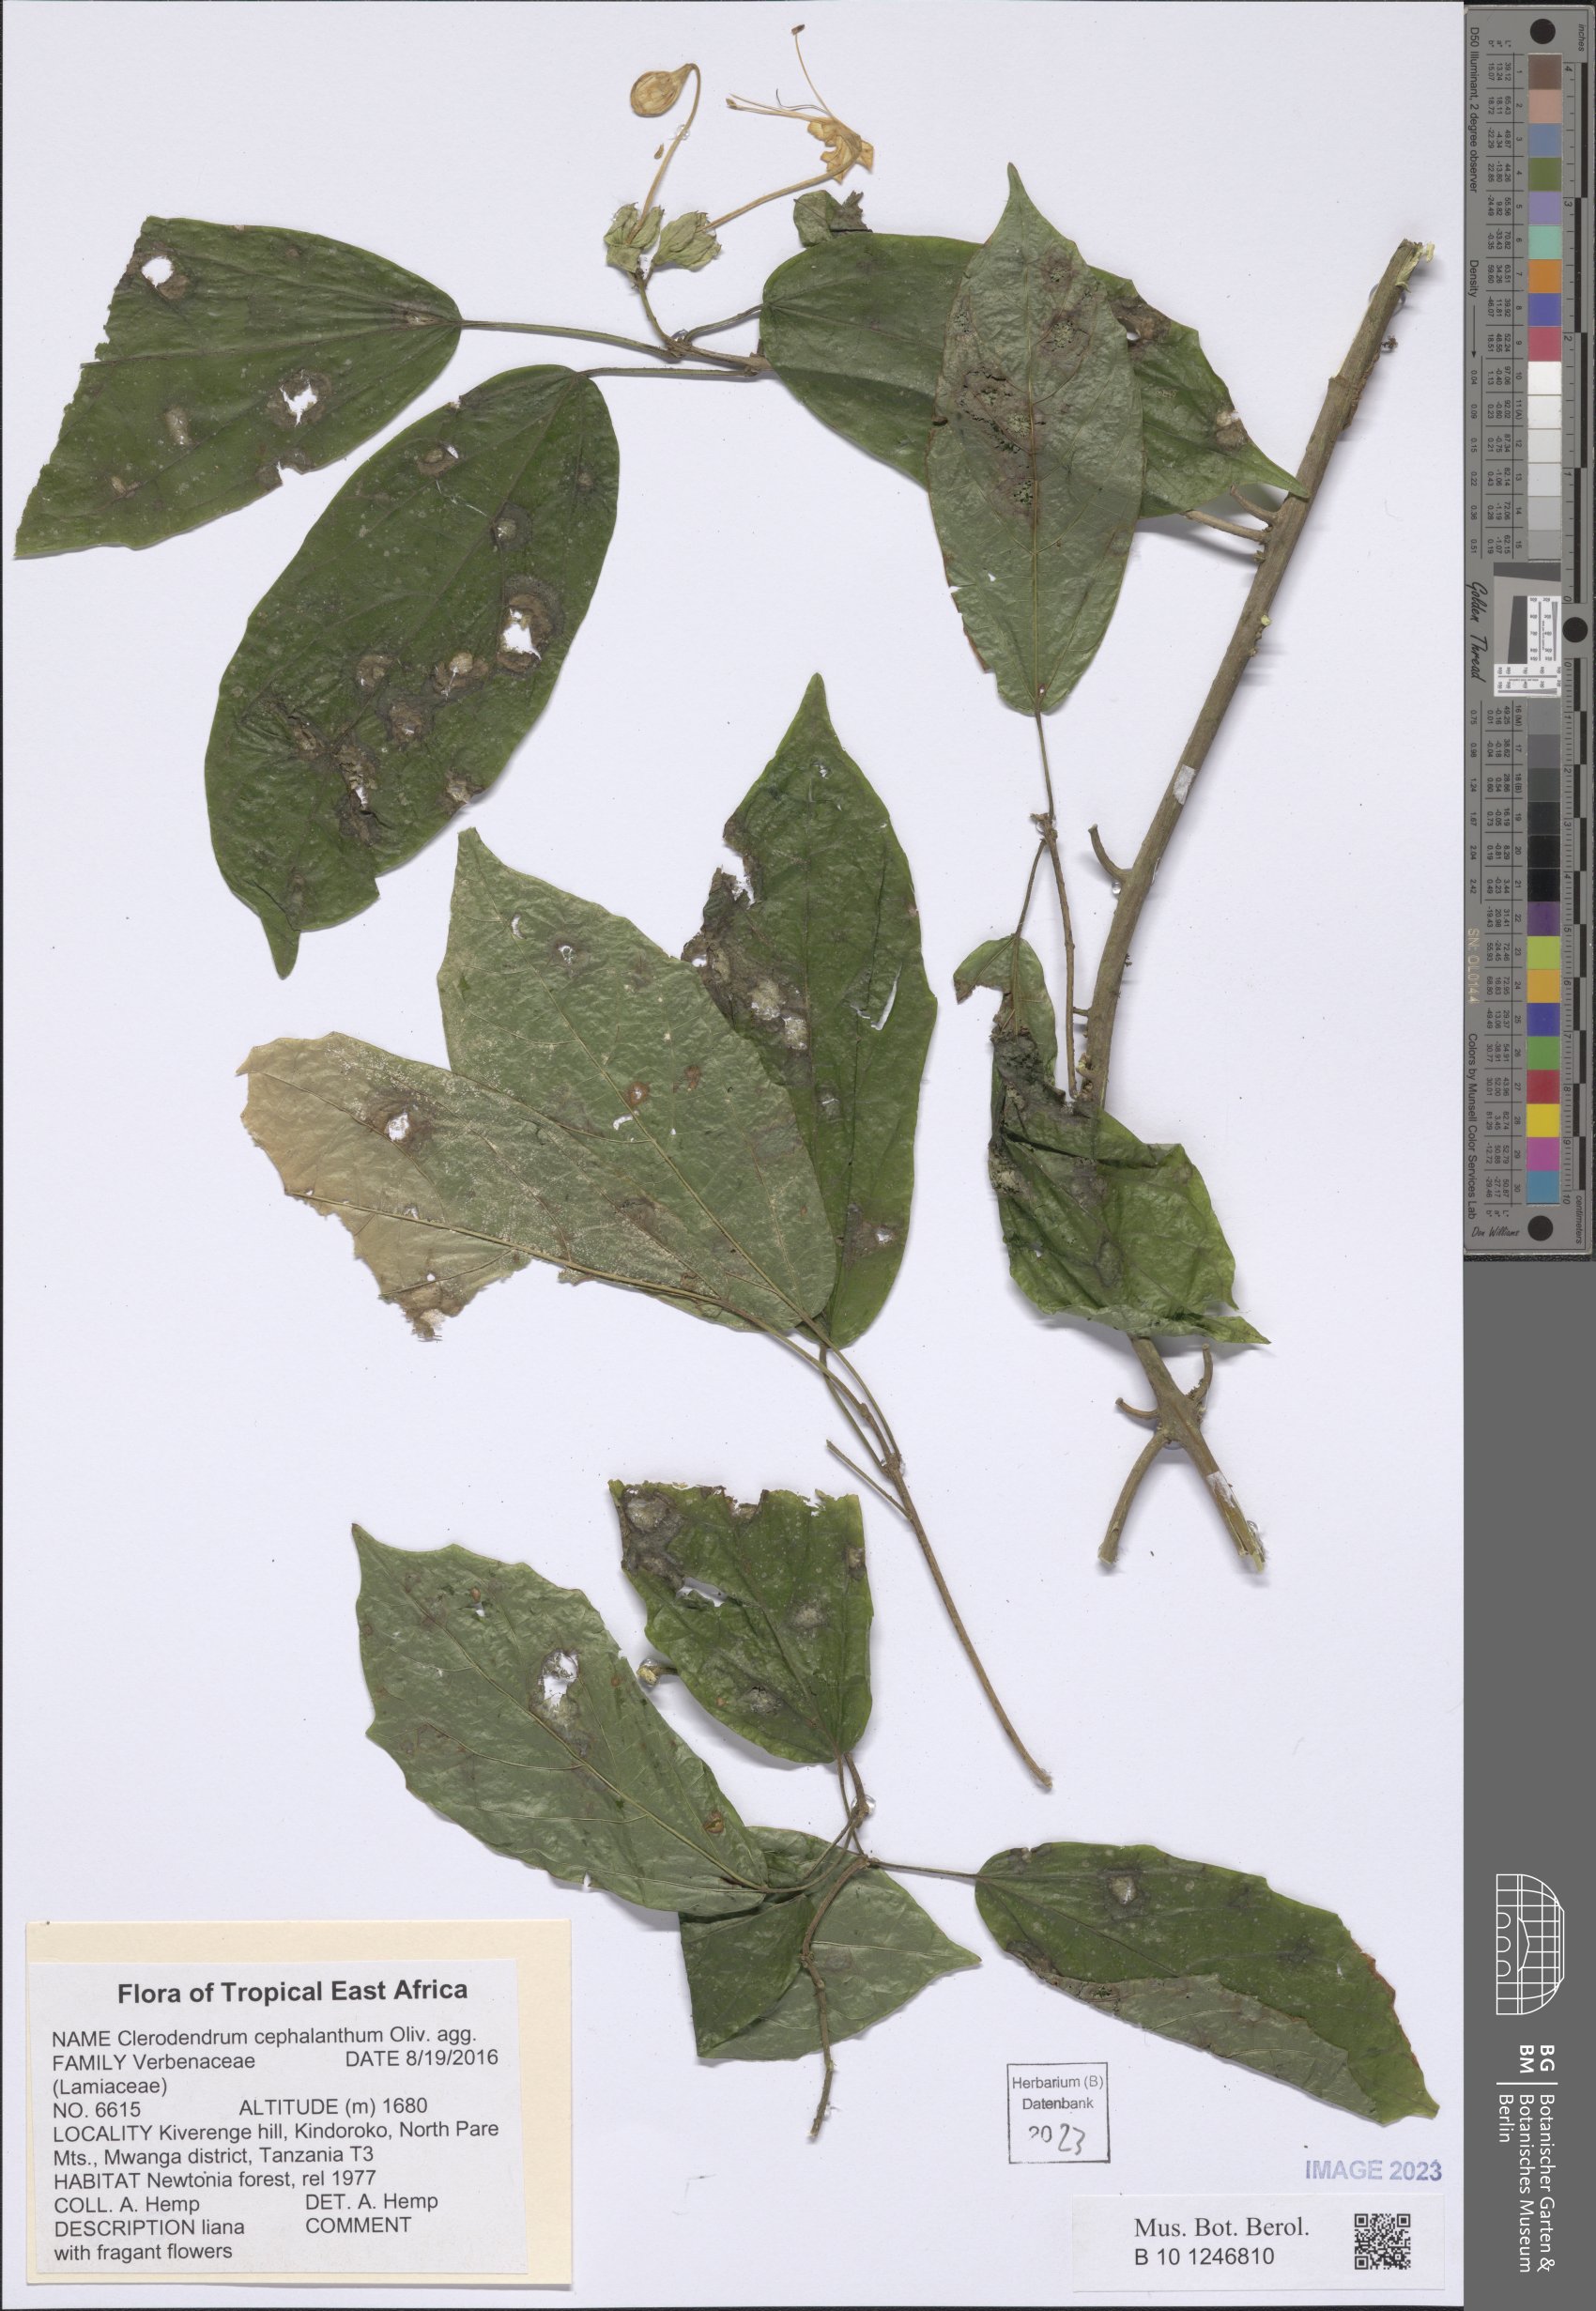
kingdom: Plantae
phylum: Tracheophyta
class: Magnoliopsida
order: Lamiales
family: Lamiaceae
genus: Clerodendrum
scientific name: Clerodendrum cephalanthum
